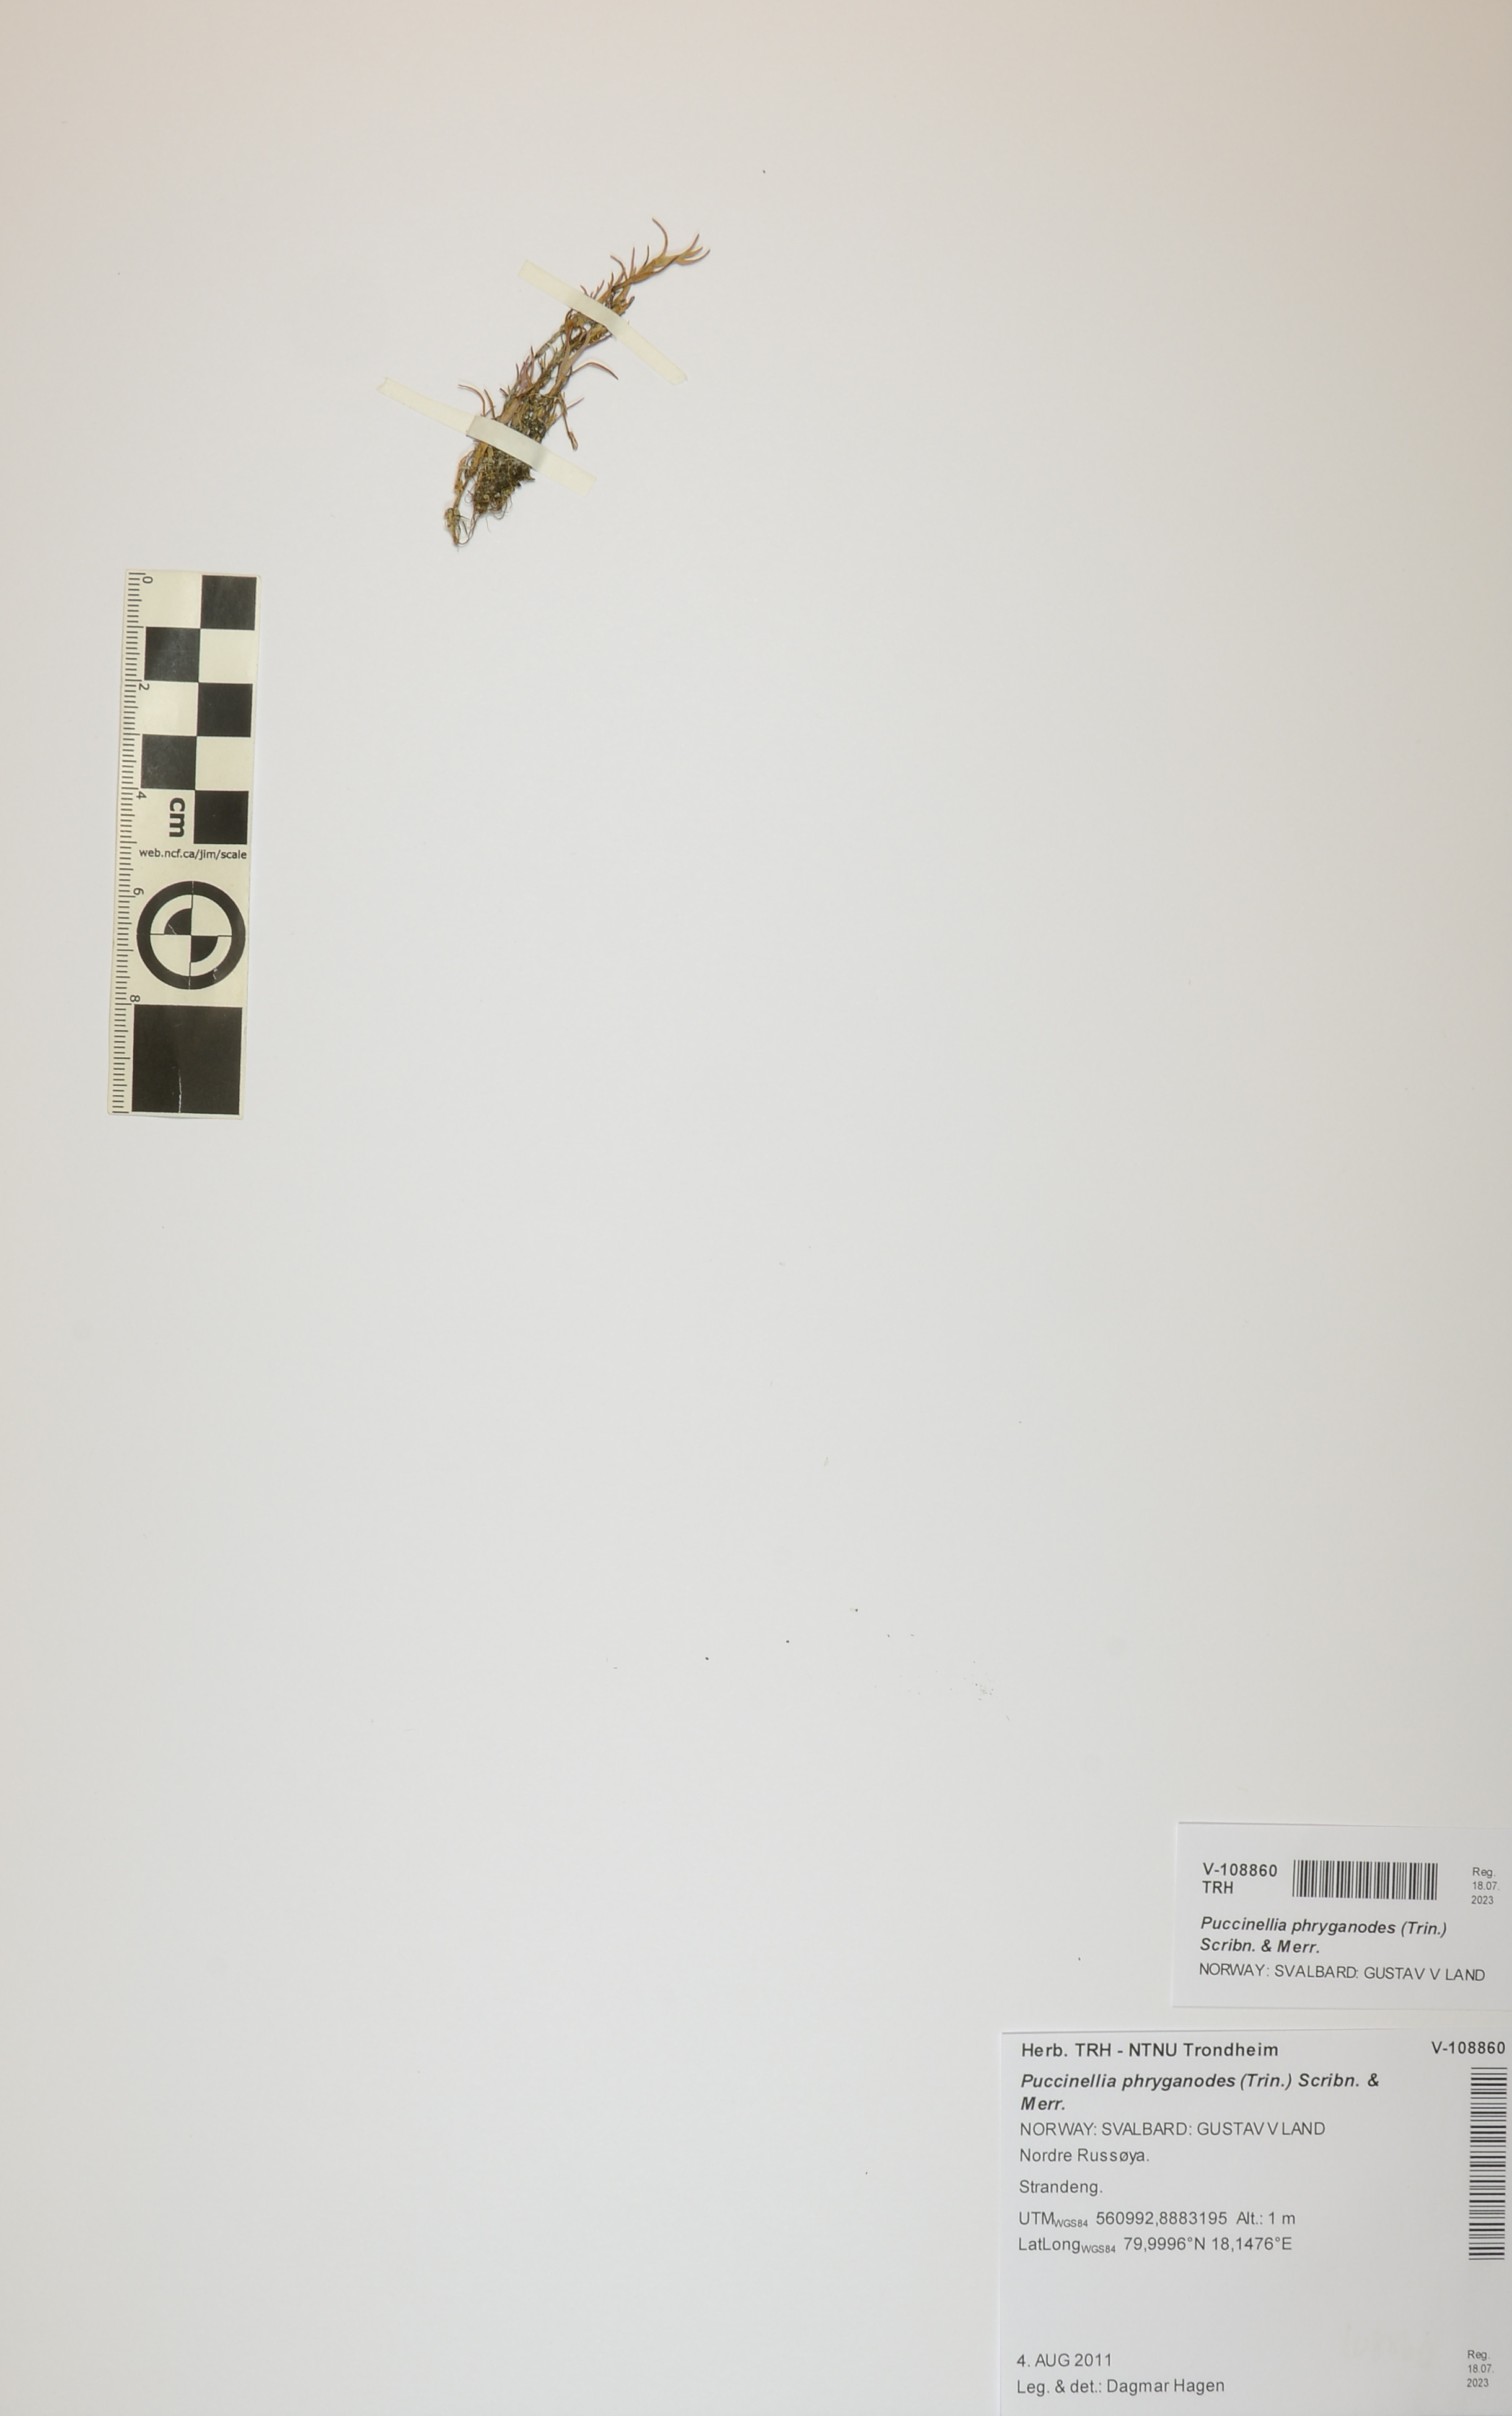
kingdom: Plantae
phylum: Tracheophyta
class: Liliopsida
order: Poales
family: Poaceae
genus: Puccinellia
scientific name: Puccinellia phryganodes
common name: Creeping alkaligrass
